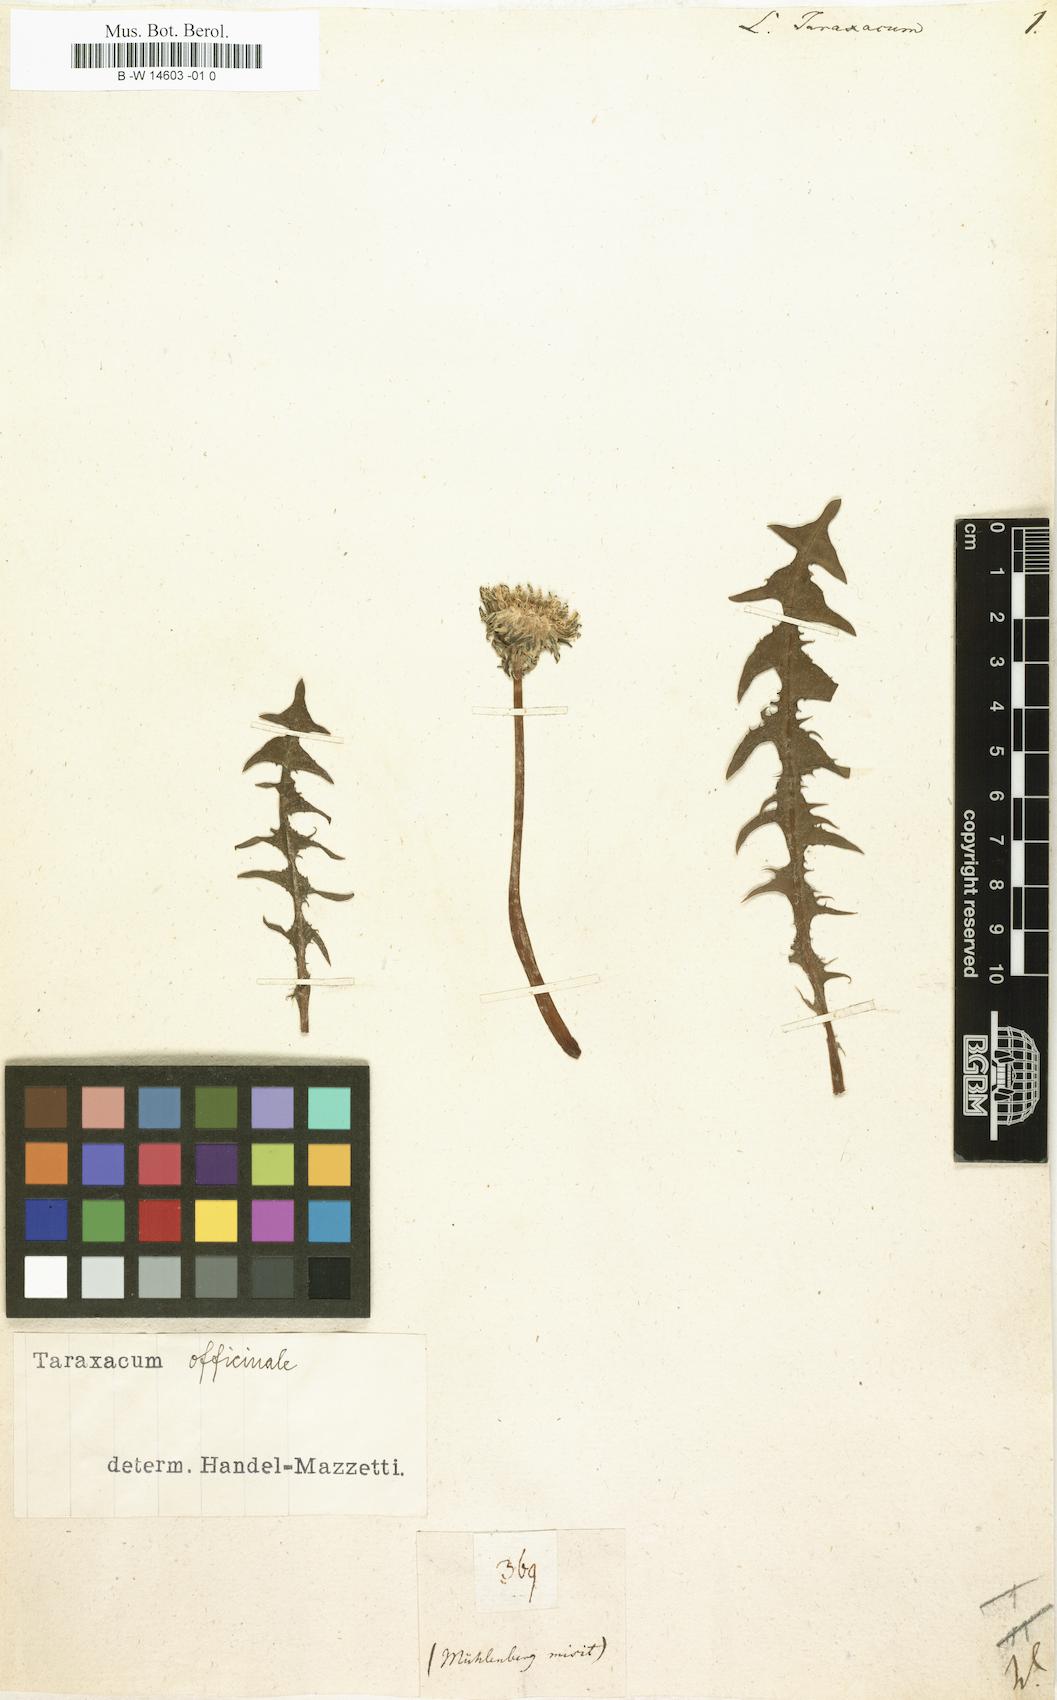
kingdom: Plantae
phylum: Tracheophyta
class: Magnoliopsida
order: Asterales
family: Asteraceae
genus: Taraxacum
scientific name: Taraxacum officinale
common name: Common dandelion
